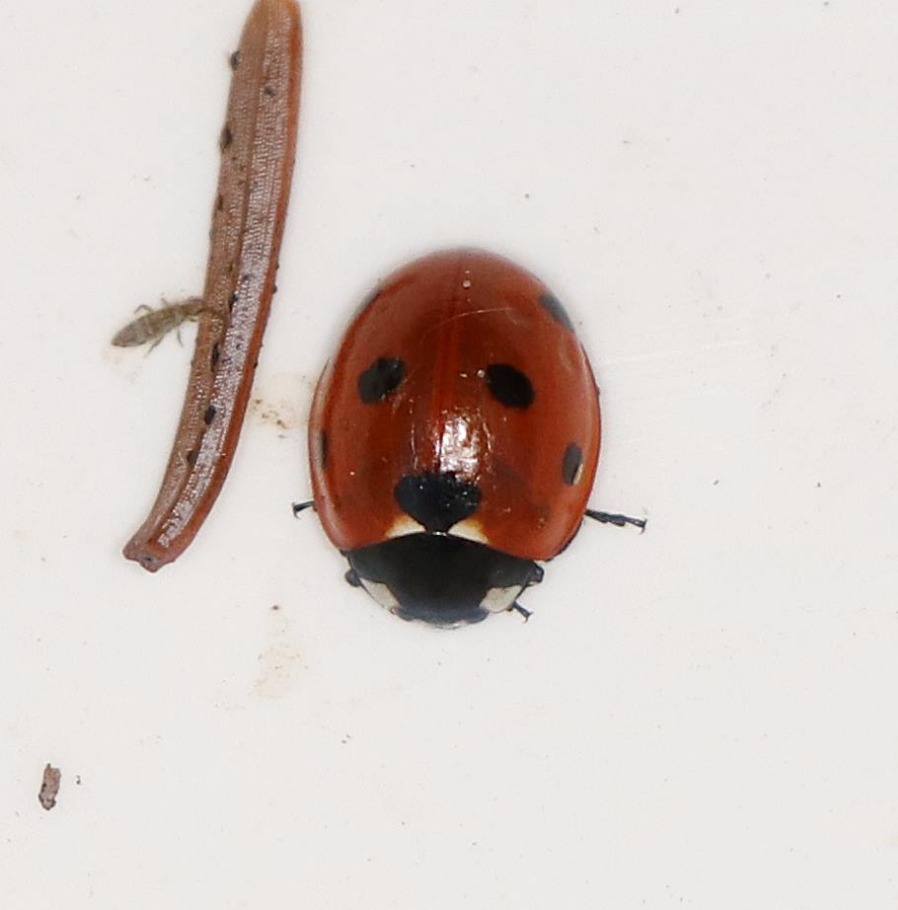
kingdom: Animalia
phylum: Arthropoda
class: Insecta
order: Coleoptera
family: Coccinellidae
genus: Coccinella
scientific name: Coccinella septempunctata
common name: Syvplettet mariehøne
